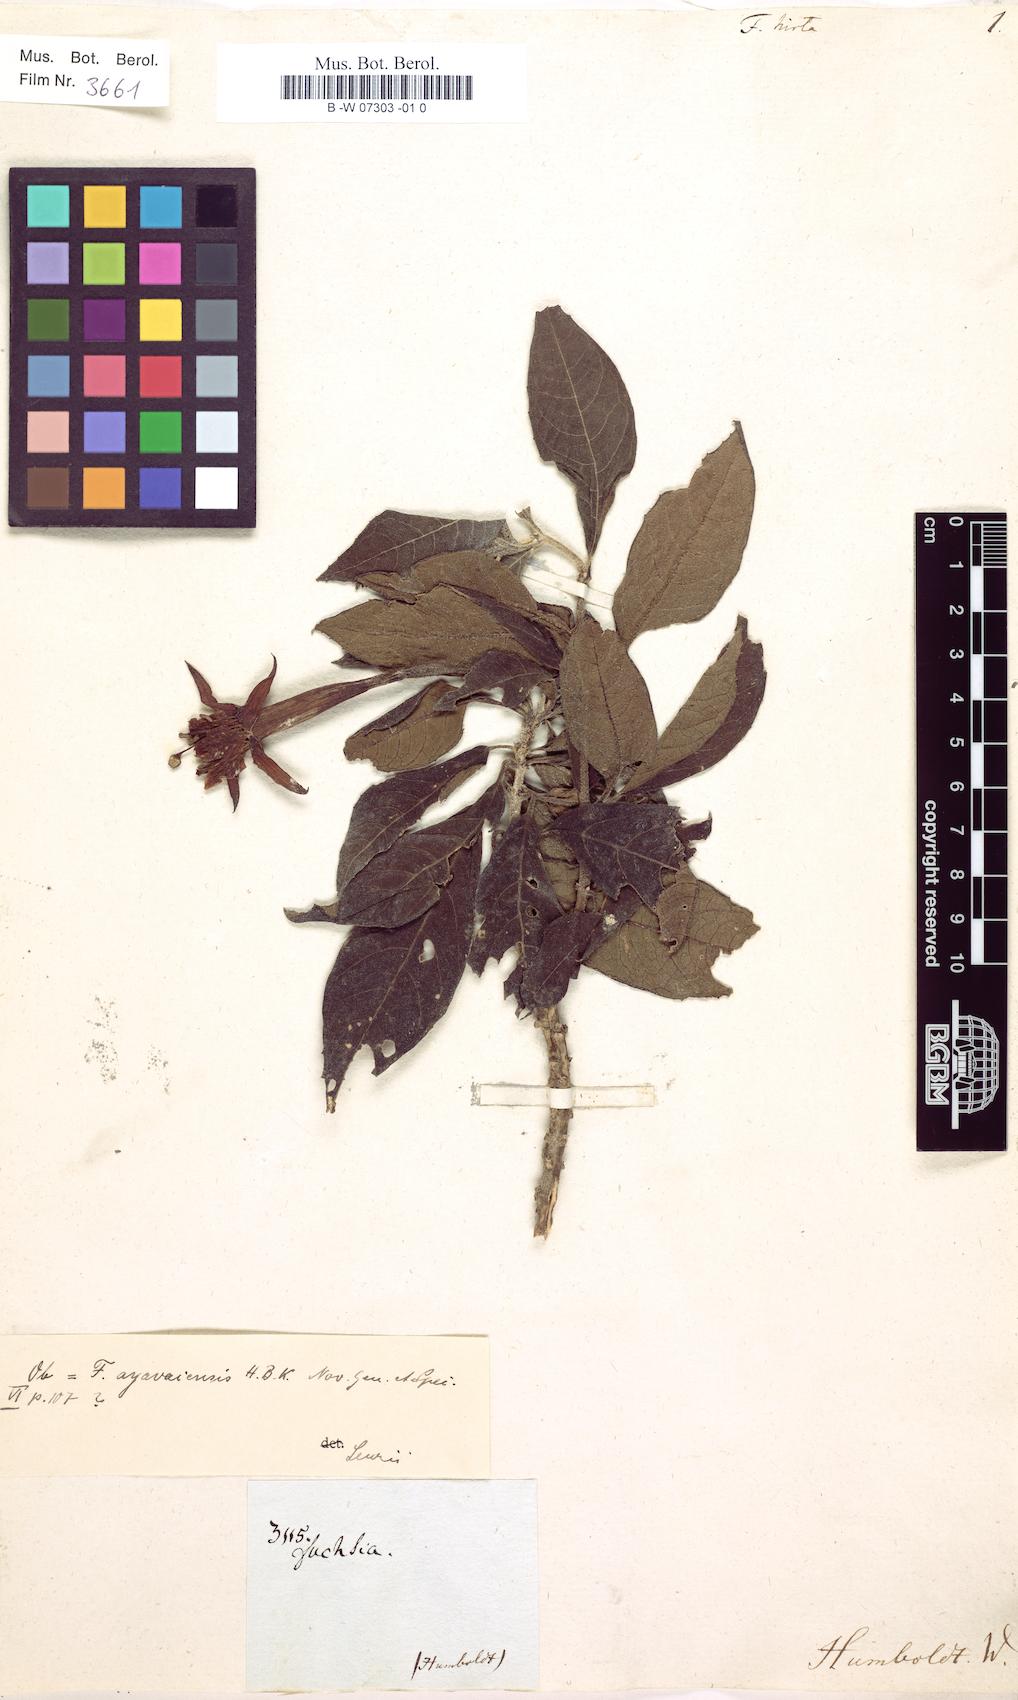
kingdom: Plantae
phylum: Tracheophyta
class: Magnoliopsida
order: Myrtales
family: Onagraceae
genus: Fuchsia
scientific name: Fuchsia hirta
